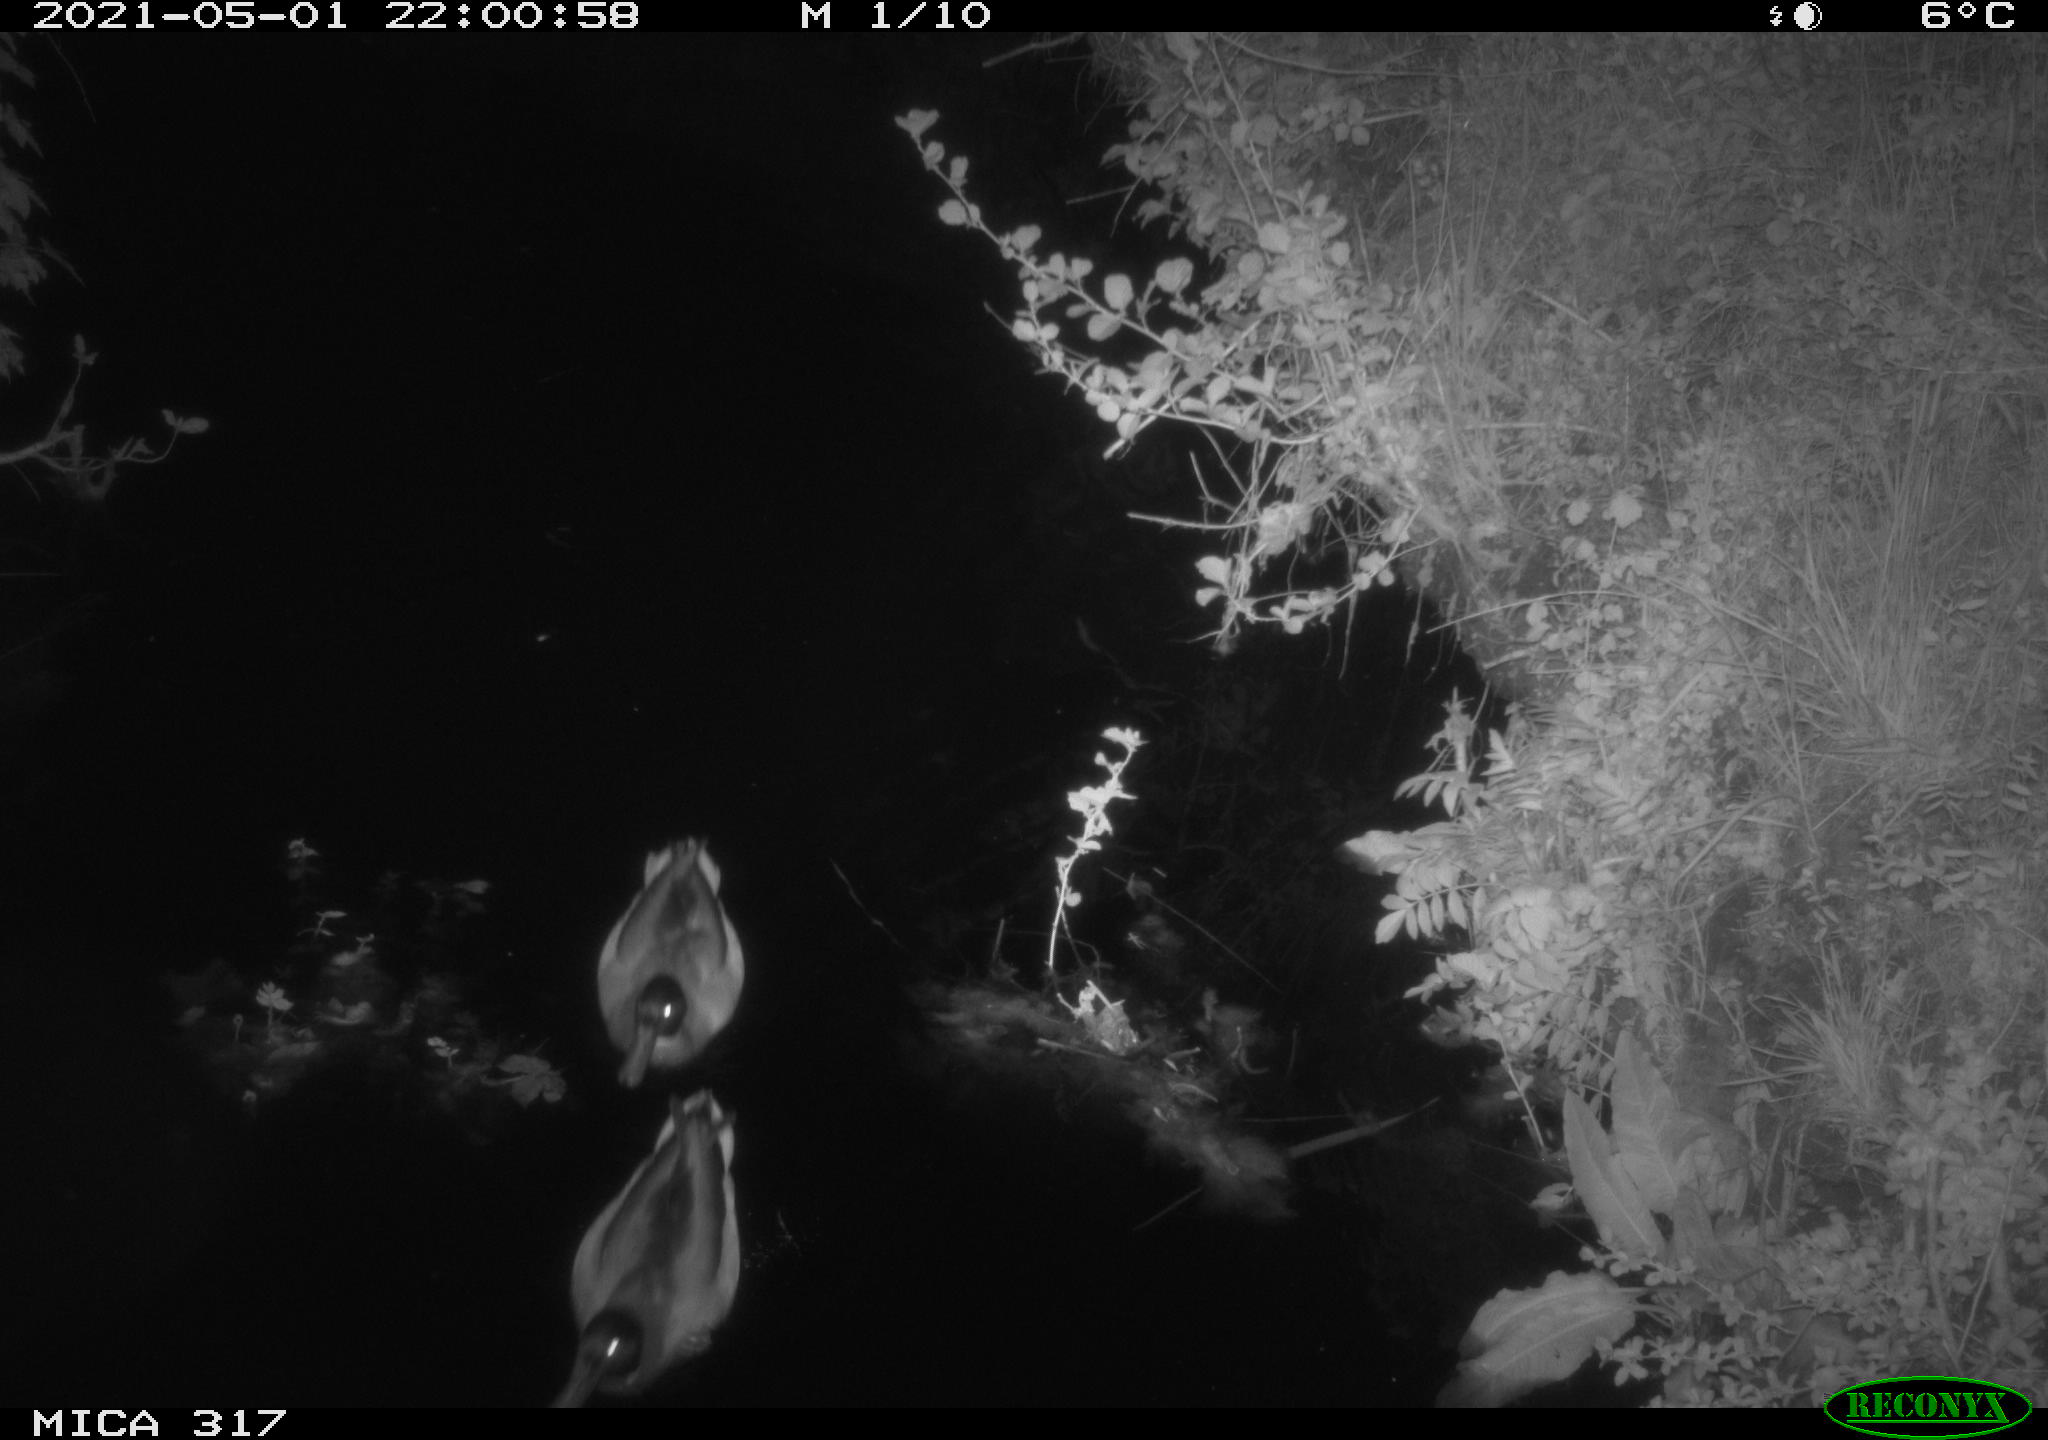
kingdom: Animalia
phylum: Chordata
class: Aves
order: Anseriformes
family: Anatidae
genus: Anas
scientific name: Anas
